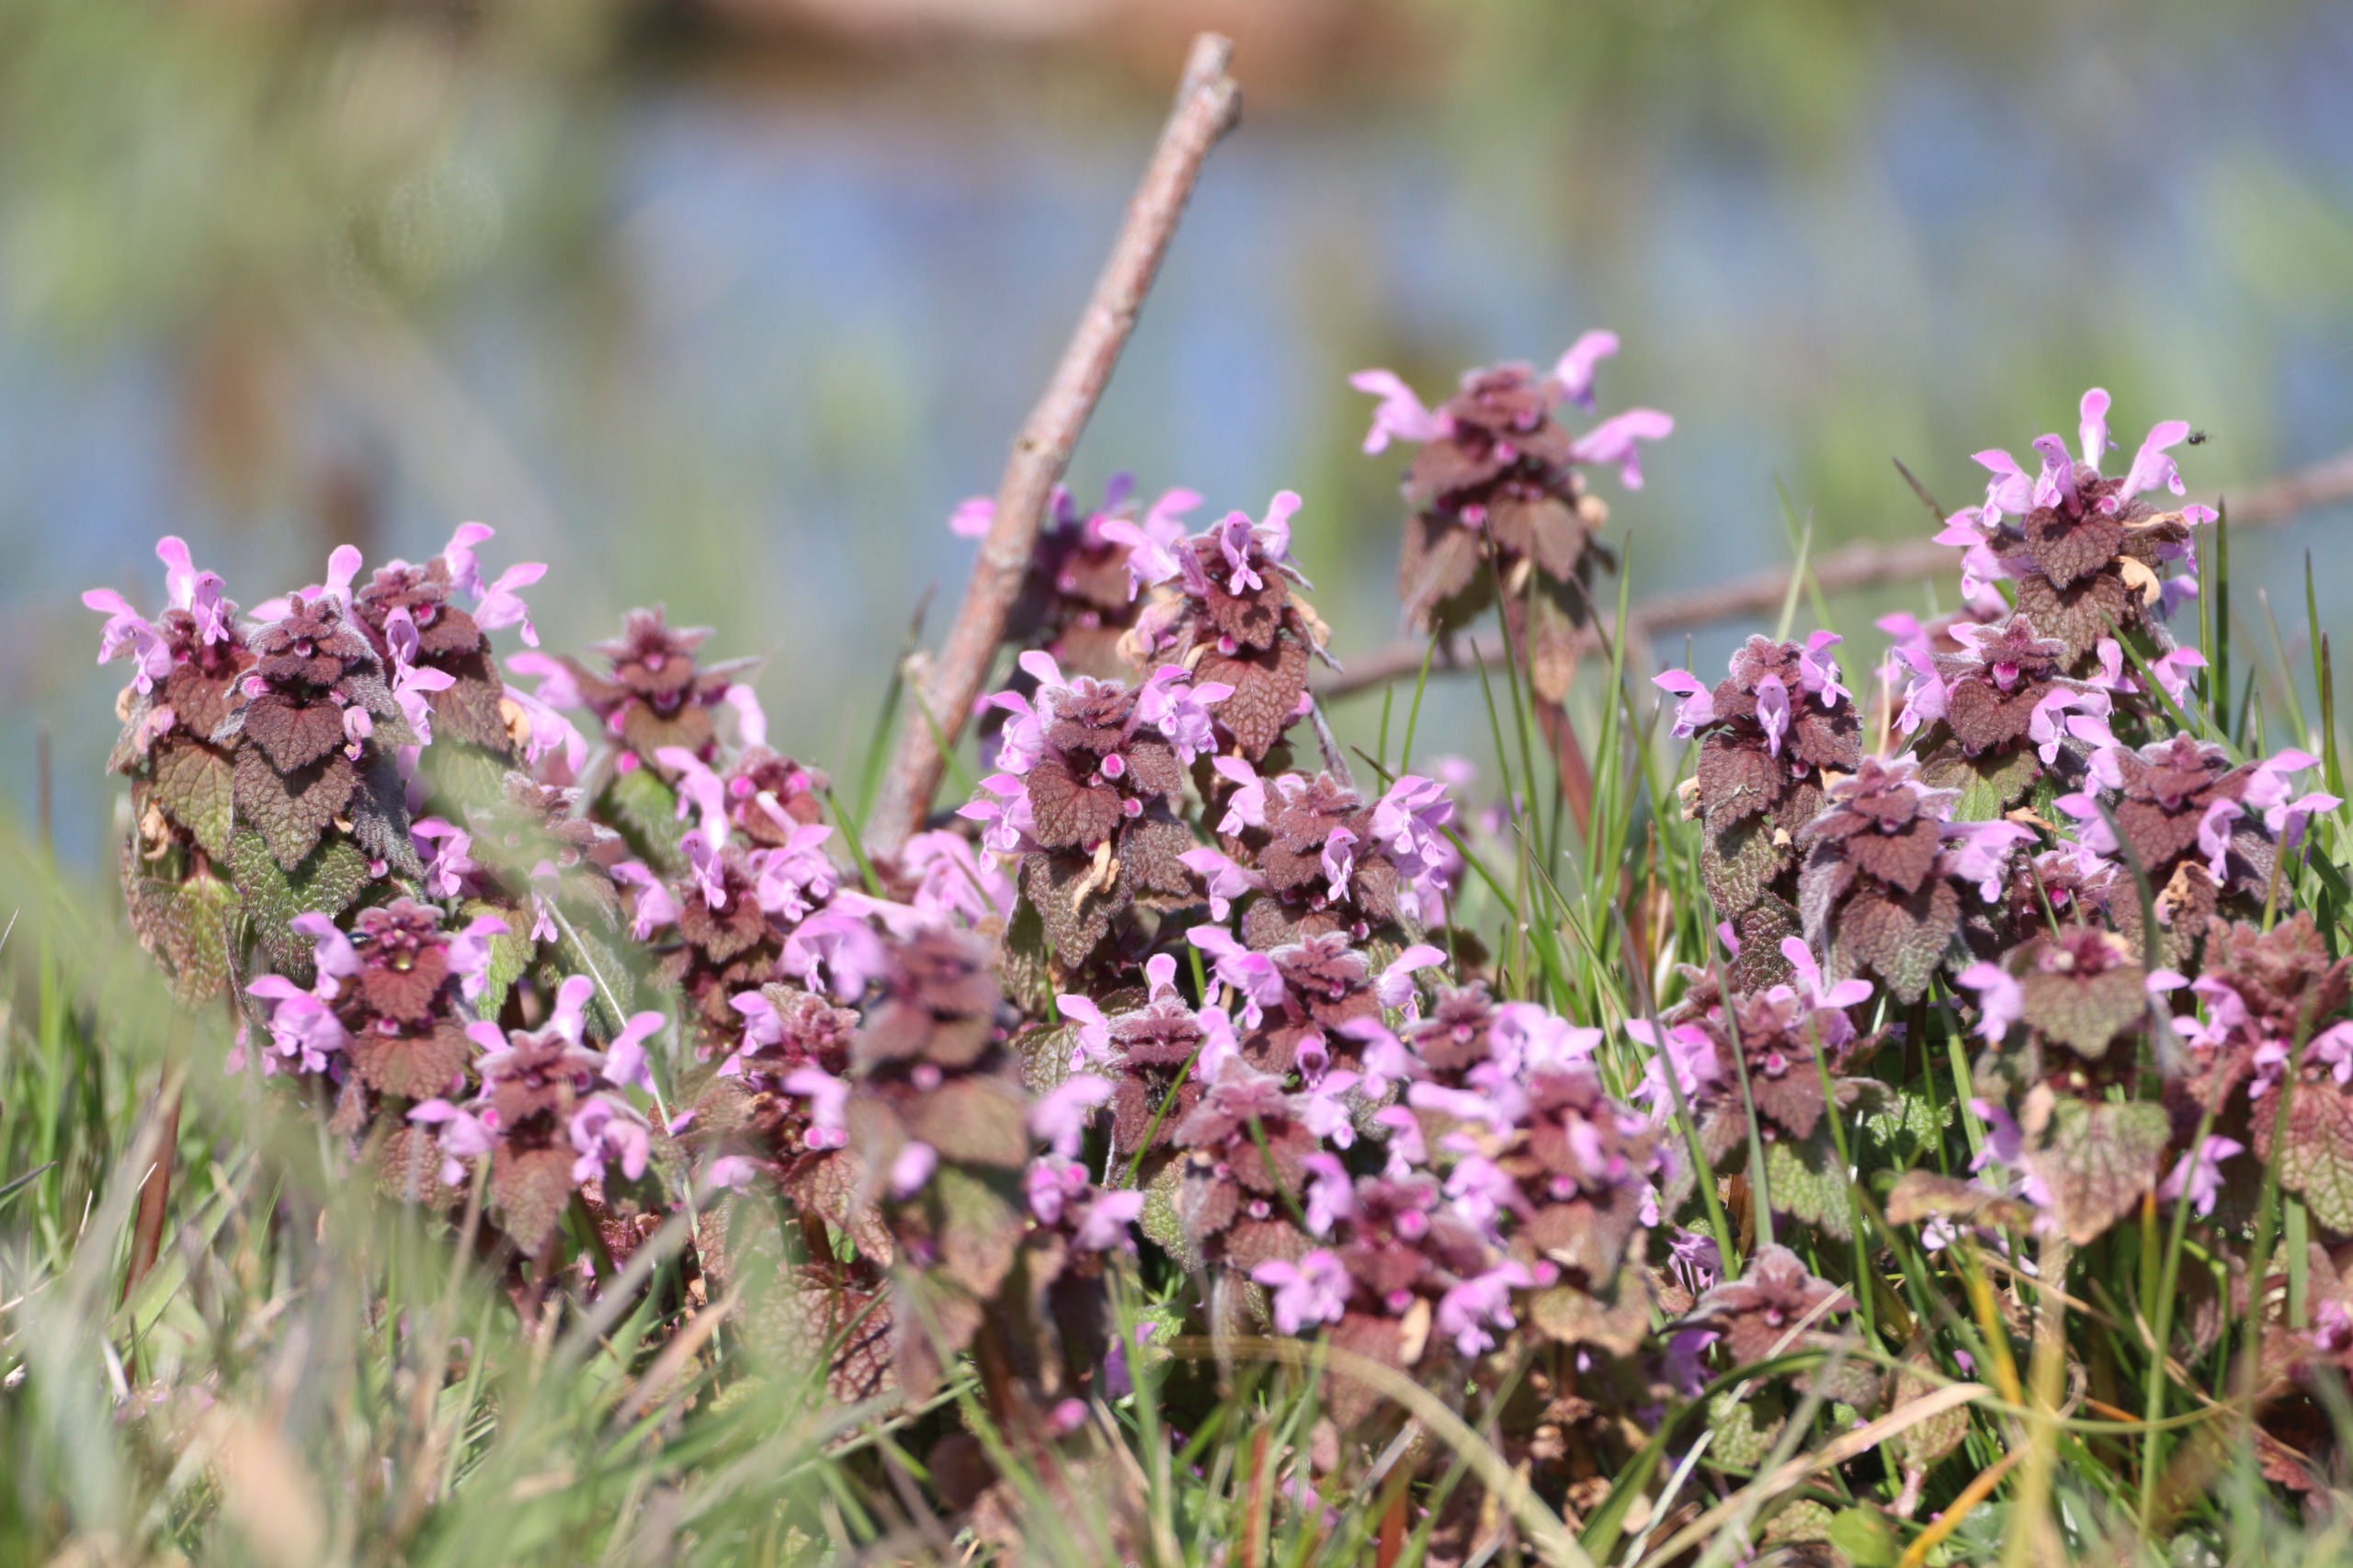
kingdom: Plantae
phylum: Tracheophyta
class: Magnoliopsida
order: Lamiales
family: Lamiaceae
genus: Lamium
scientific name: Lamium purpureum
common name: Rød tvetand
